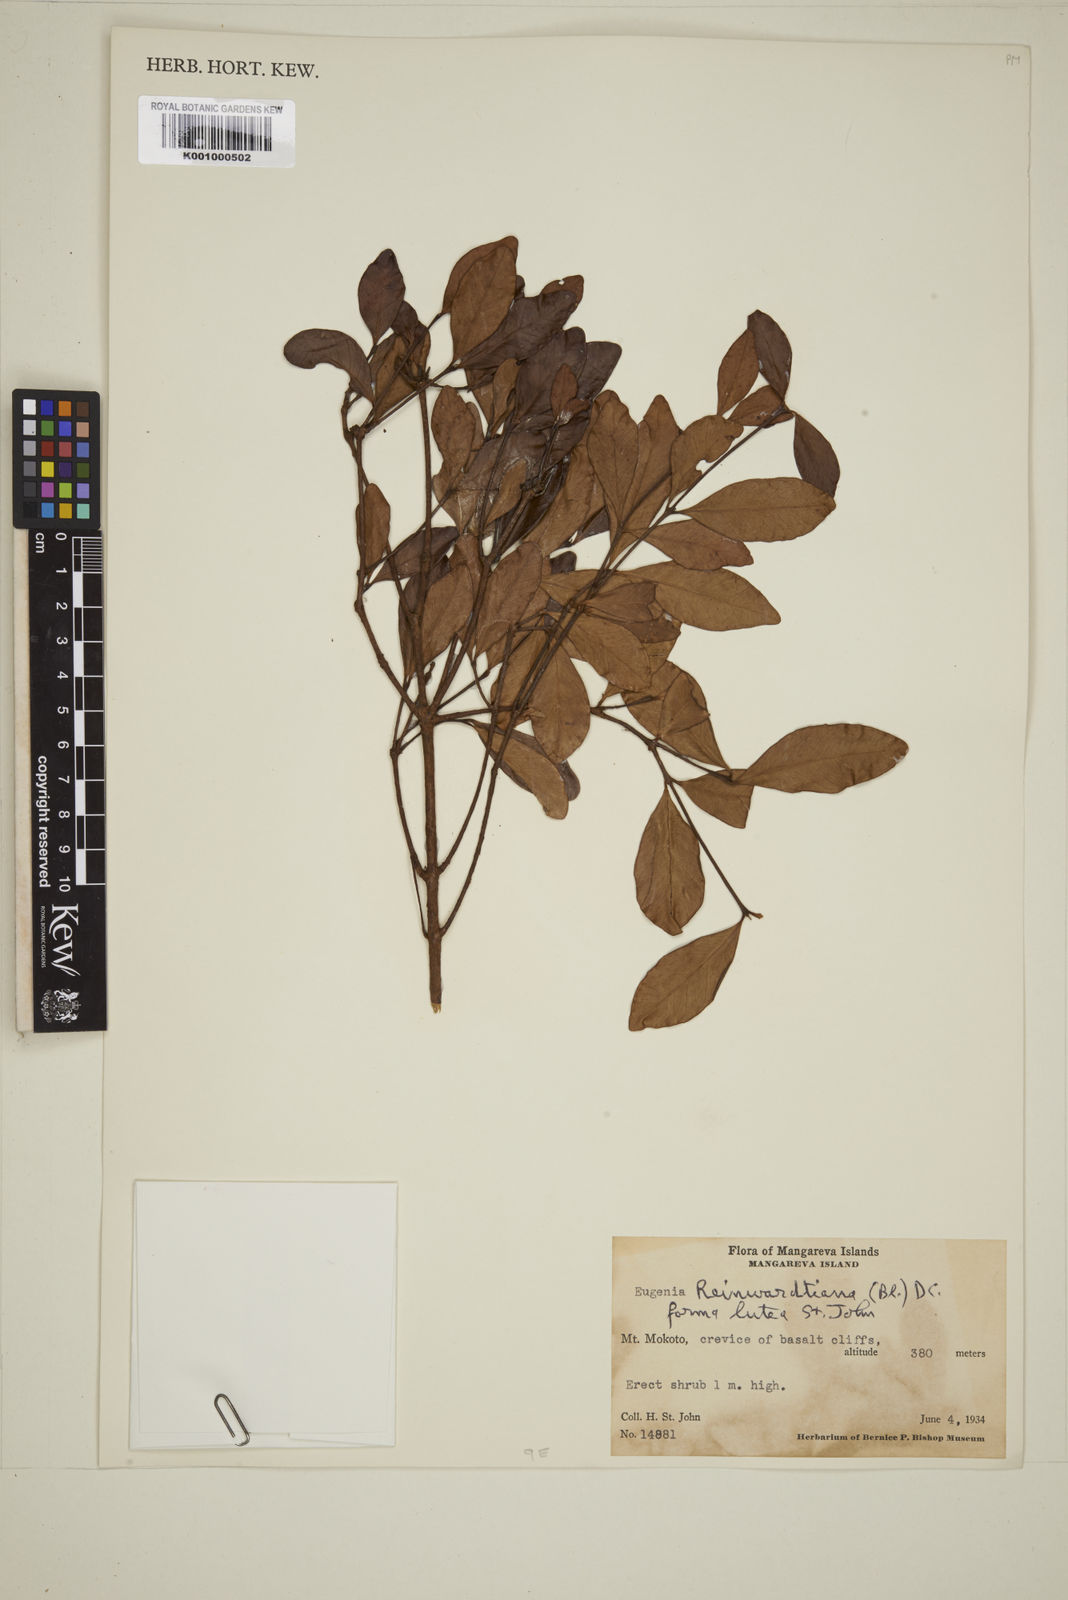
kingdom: Plantae
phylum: Tracheophyta
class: Magnoliopsida
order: Myrtales
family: Myrtaceae
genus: Eugenia
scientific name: Eugenia uniflora
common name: Surinam cherry
